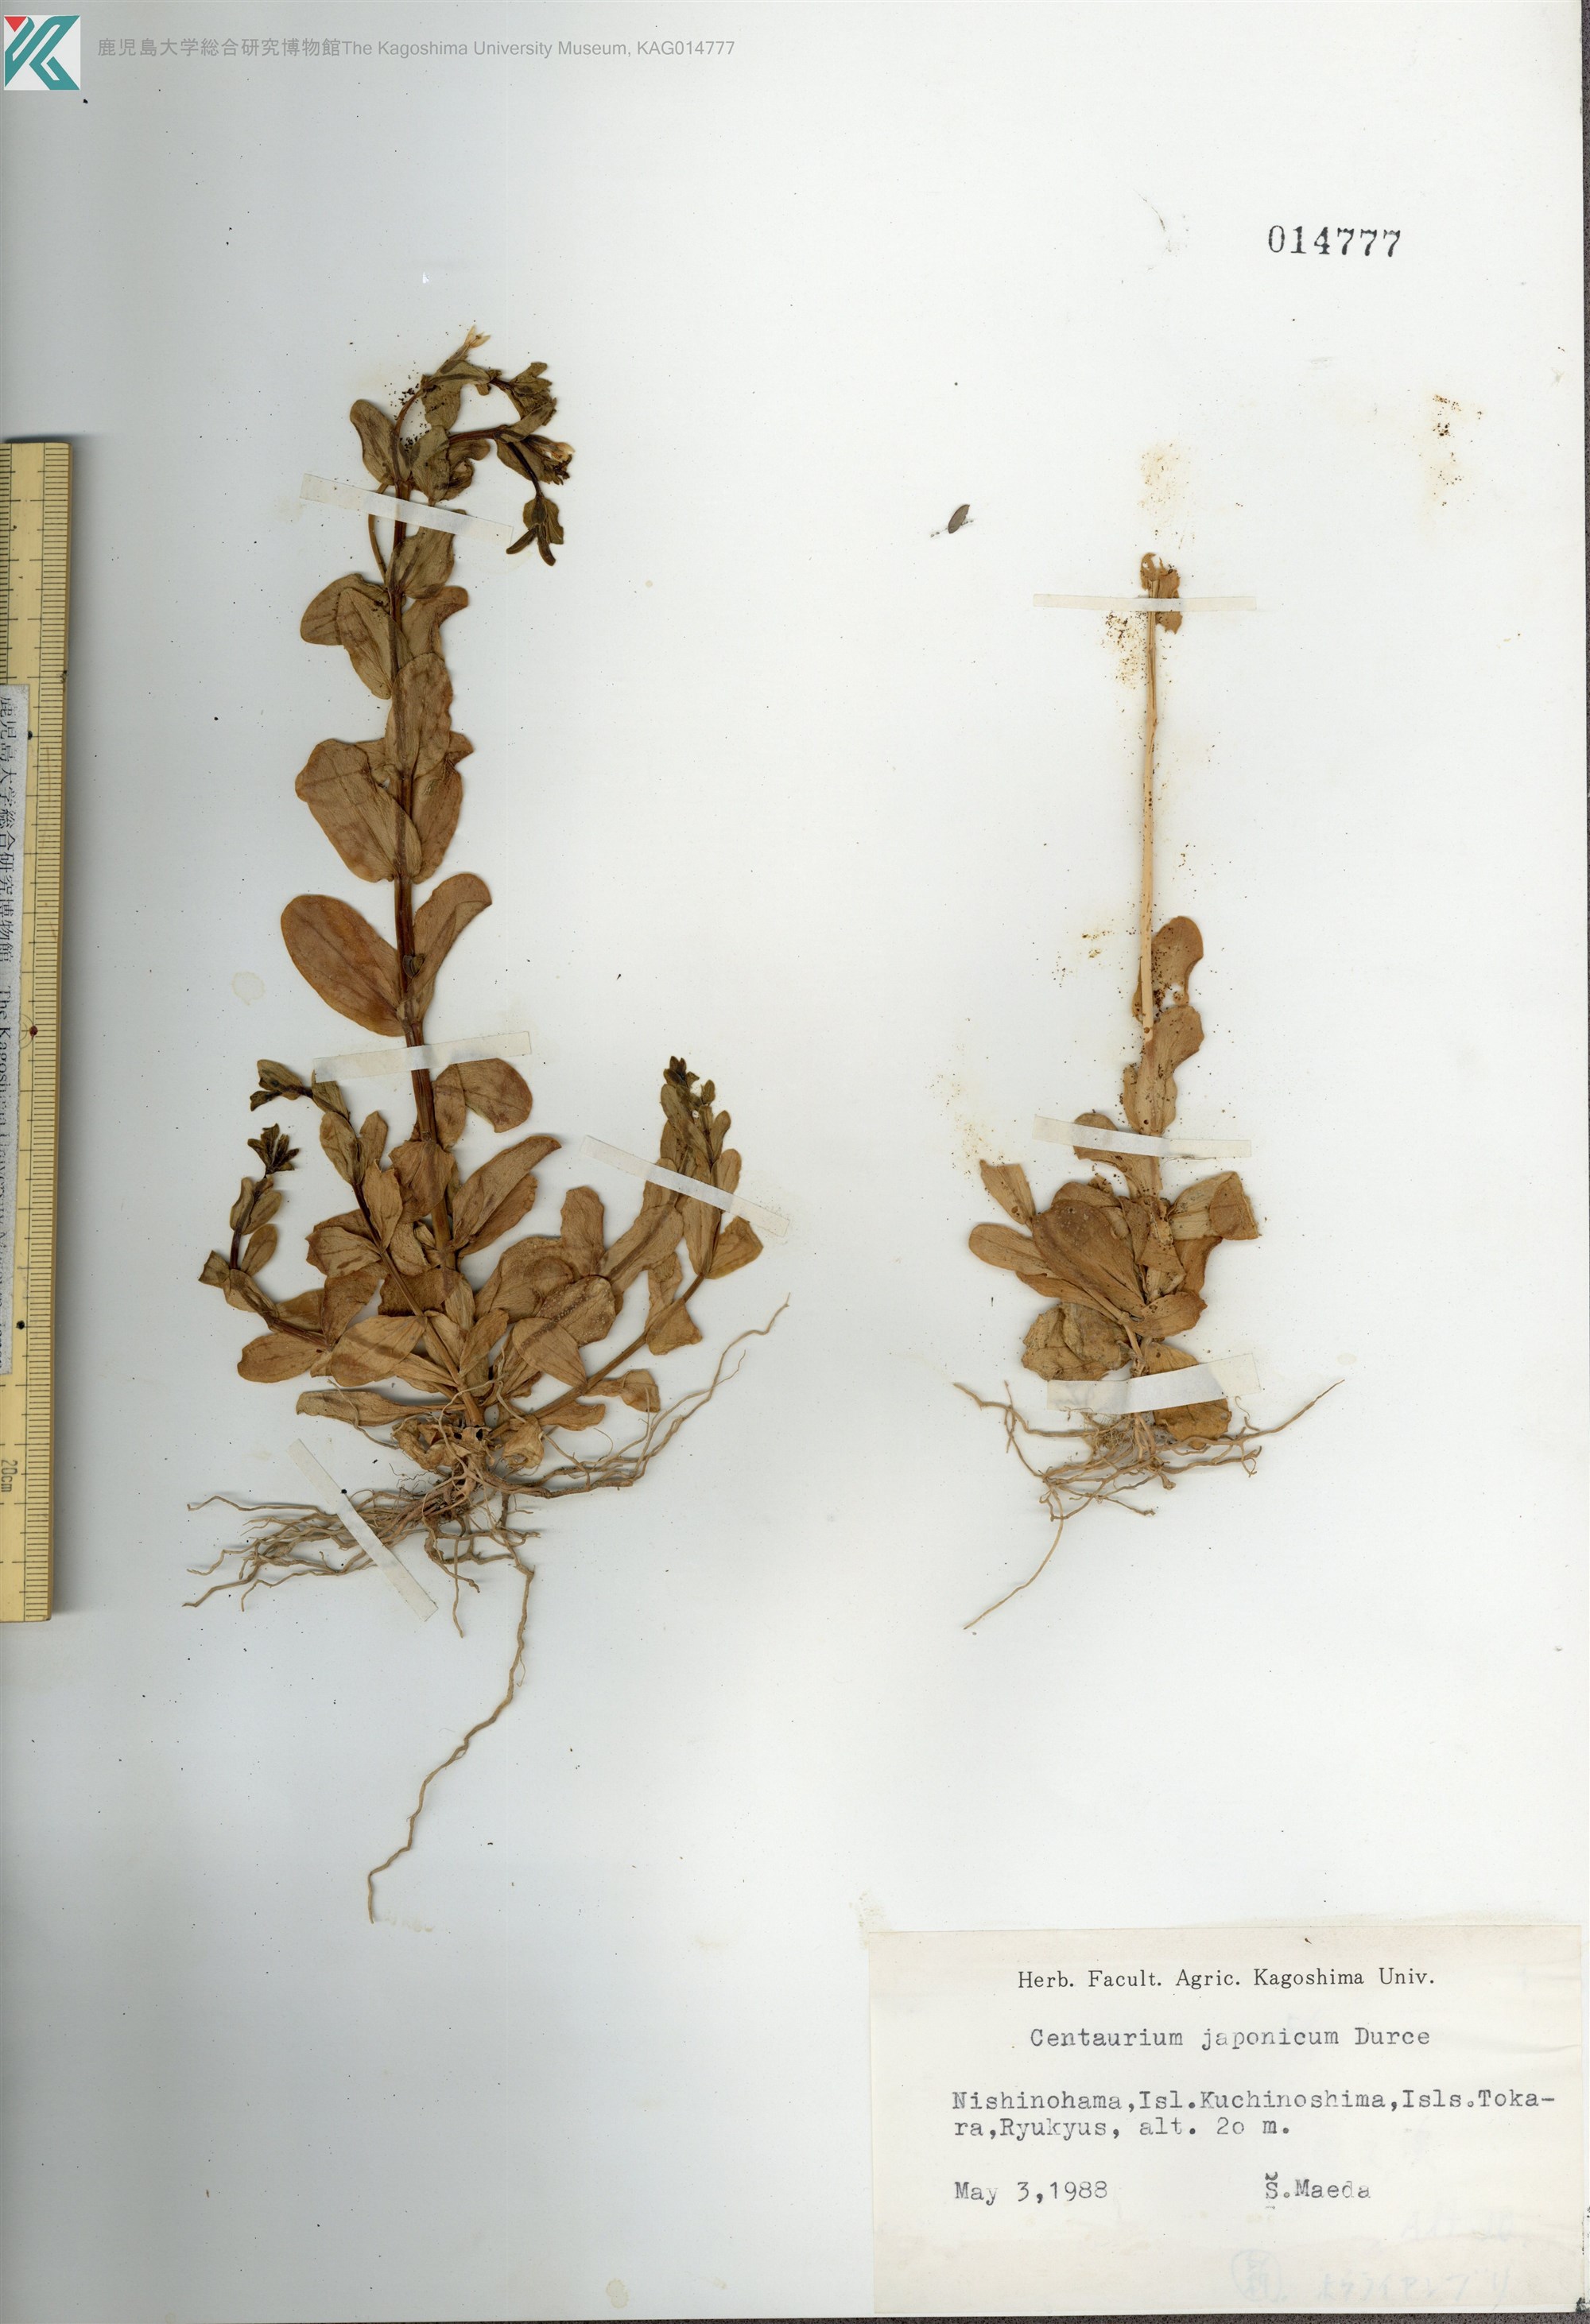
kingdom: Plantae
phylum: Tracheophyta
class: Magnoliopsida
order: Gentianales
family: Gentianaceae
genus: Schenkia
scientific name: Schenkia japonica
